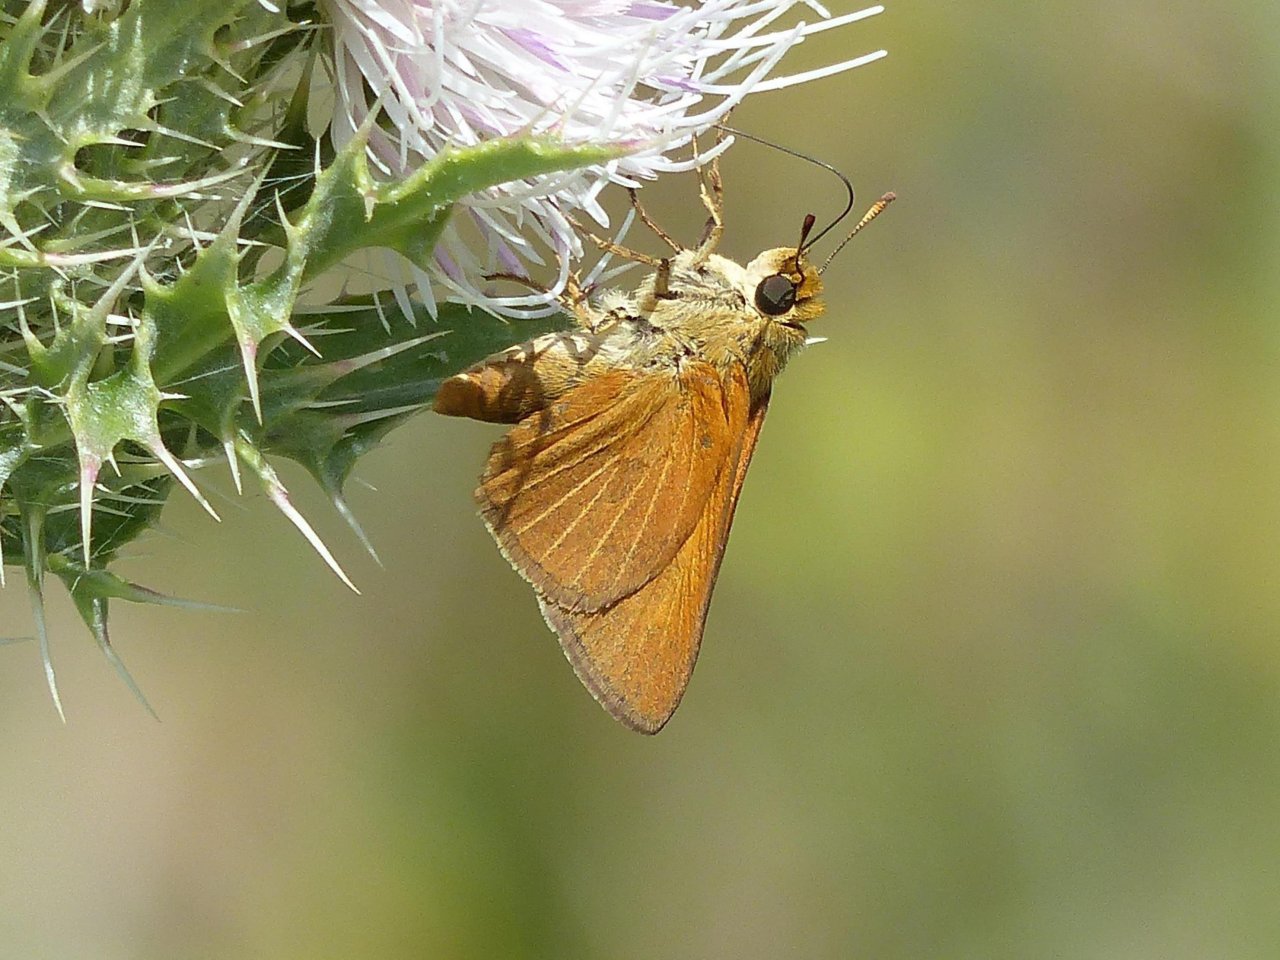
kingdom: Animalia
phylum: Arthropoda
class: Insecta
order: Lepidoptera
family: Hesperiidae
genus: Euphyes
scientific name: Euphyes berryi
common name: Berry's Skipper
